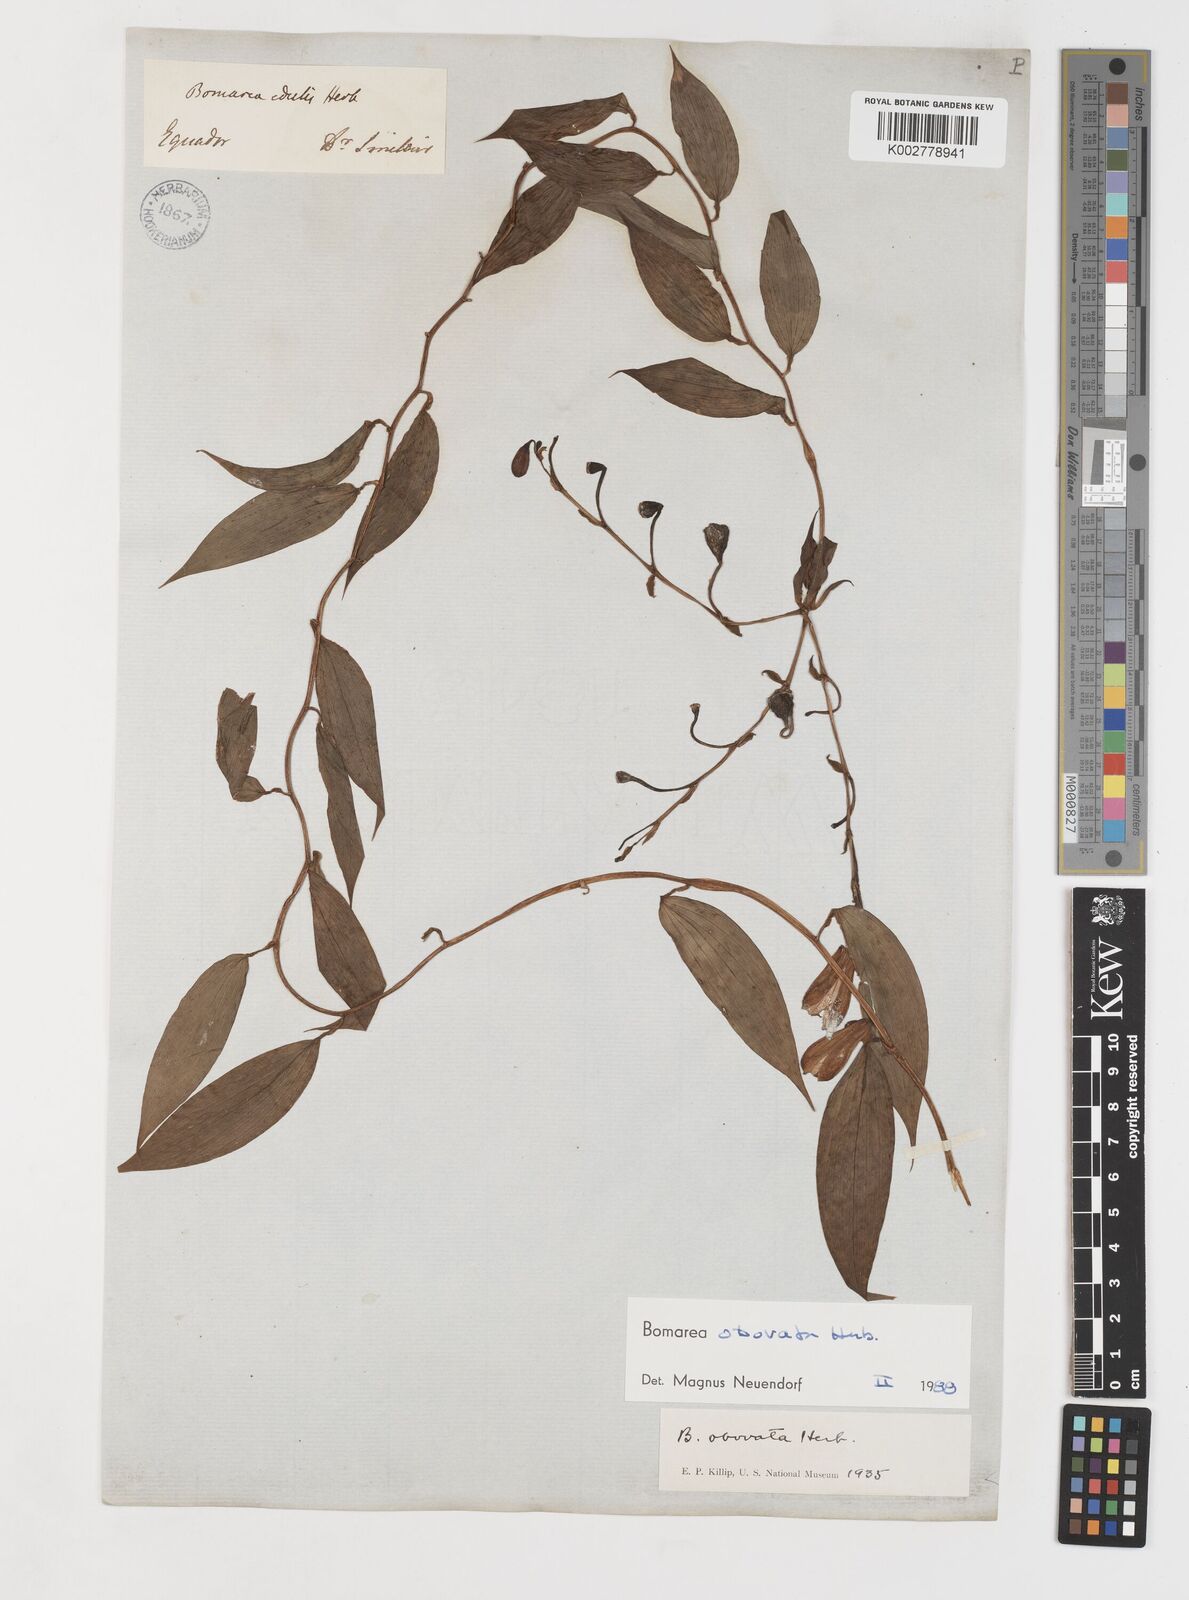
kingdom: Plantae
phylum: Tracheophyta
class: Liliopsida
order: Liliales
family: Alstroemeriaceae
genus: Bomarea
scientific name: Bomarea obovata
